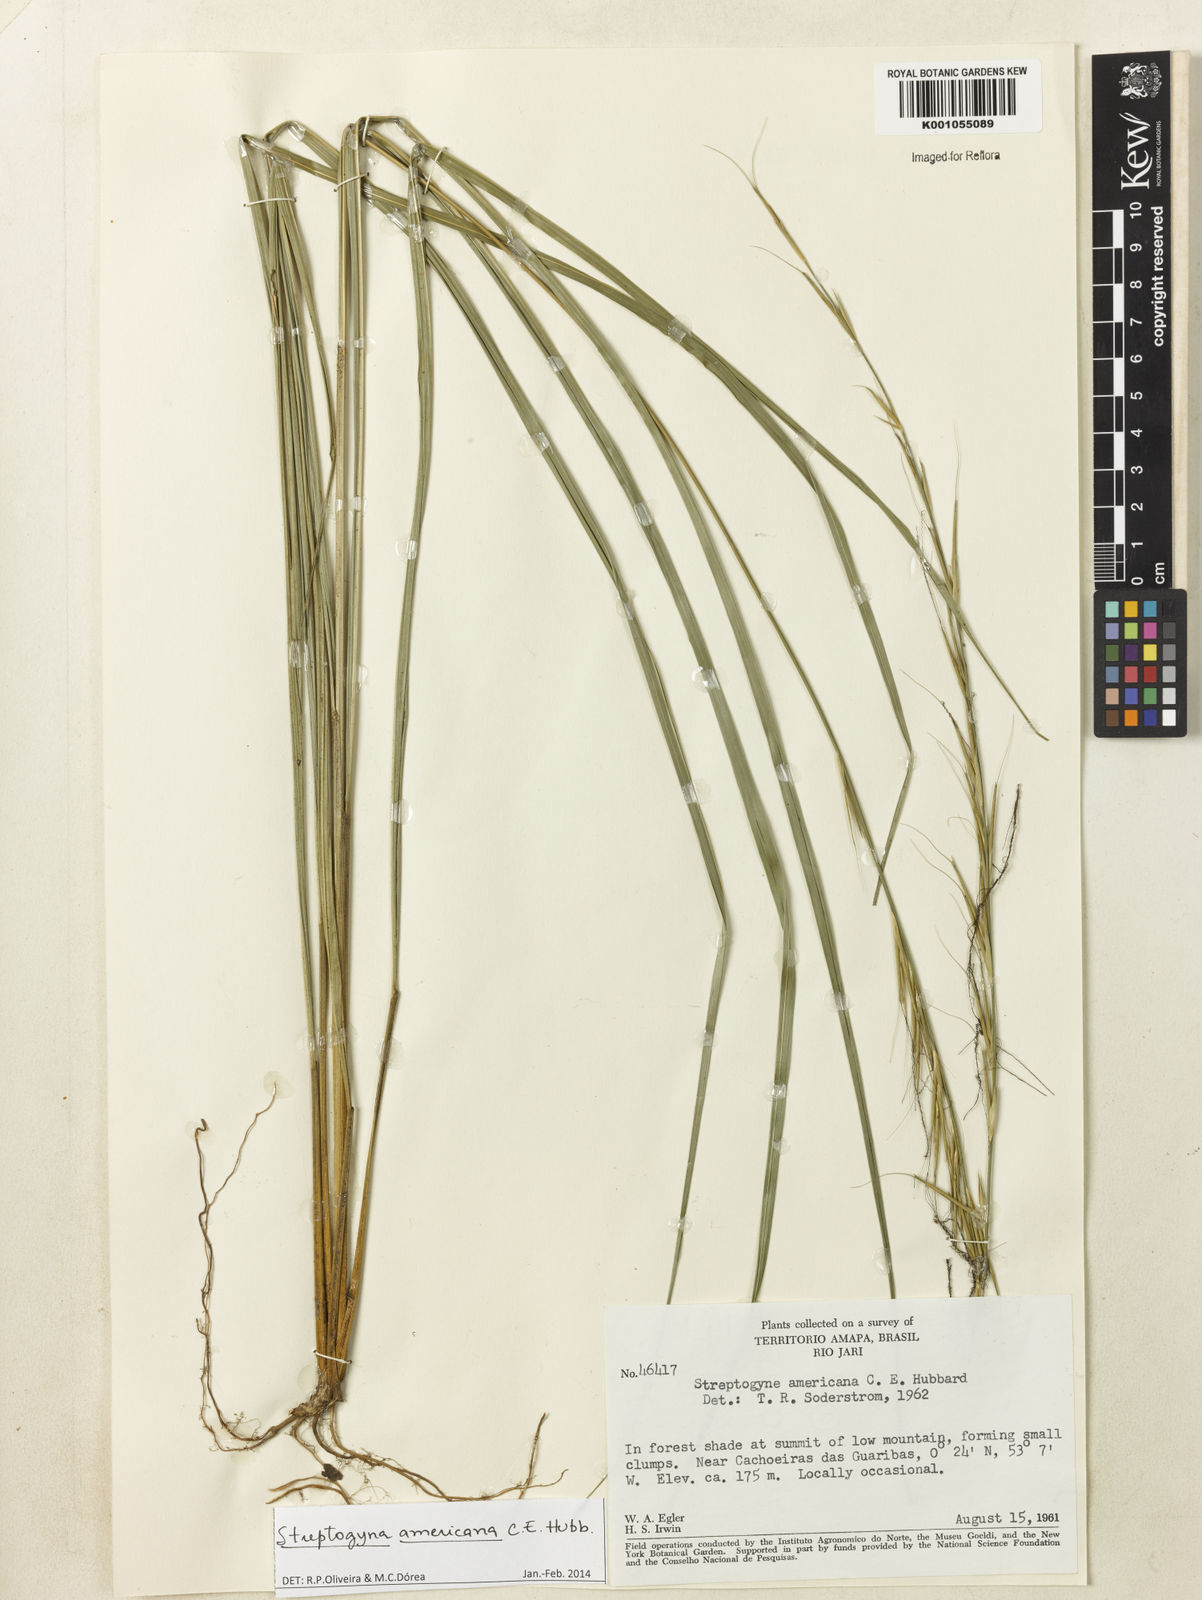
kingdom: Plantae
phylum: Tracheophyta
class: Liliopsida
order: Poales
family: Poaceae
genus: Streptogyna
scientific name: Streptogyna americana
